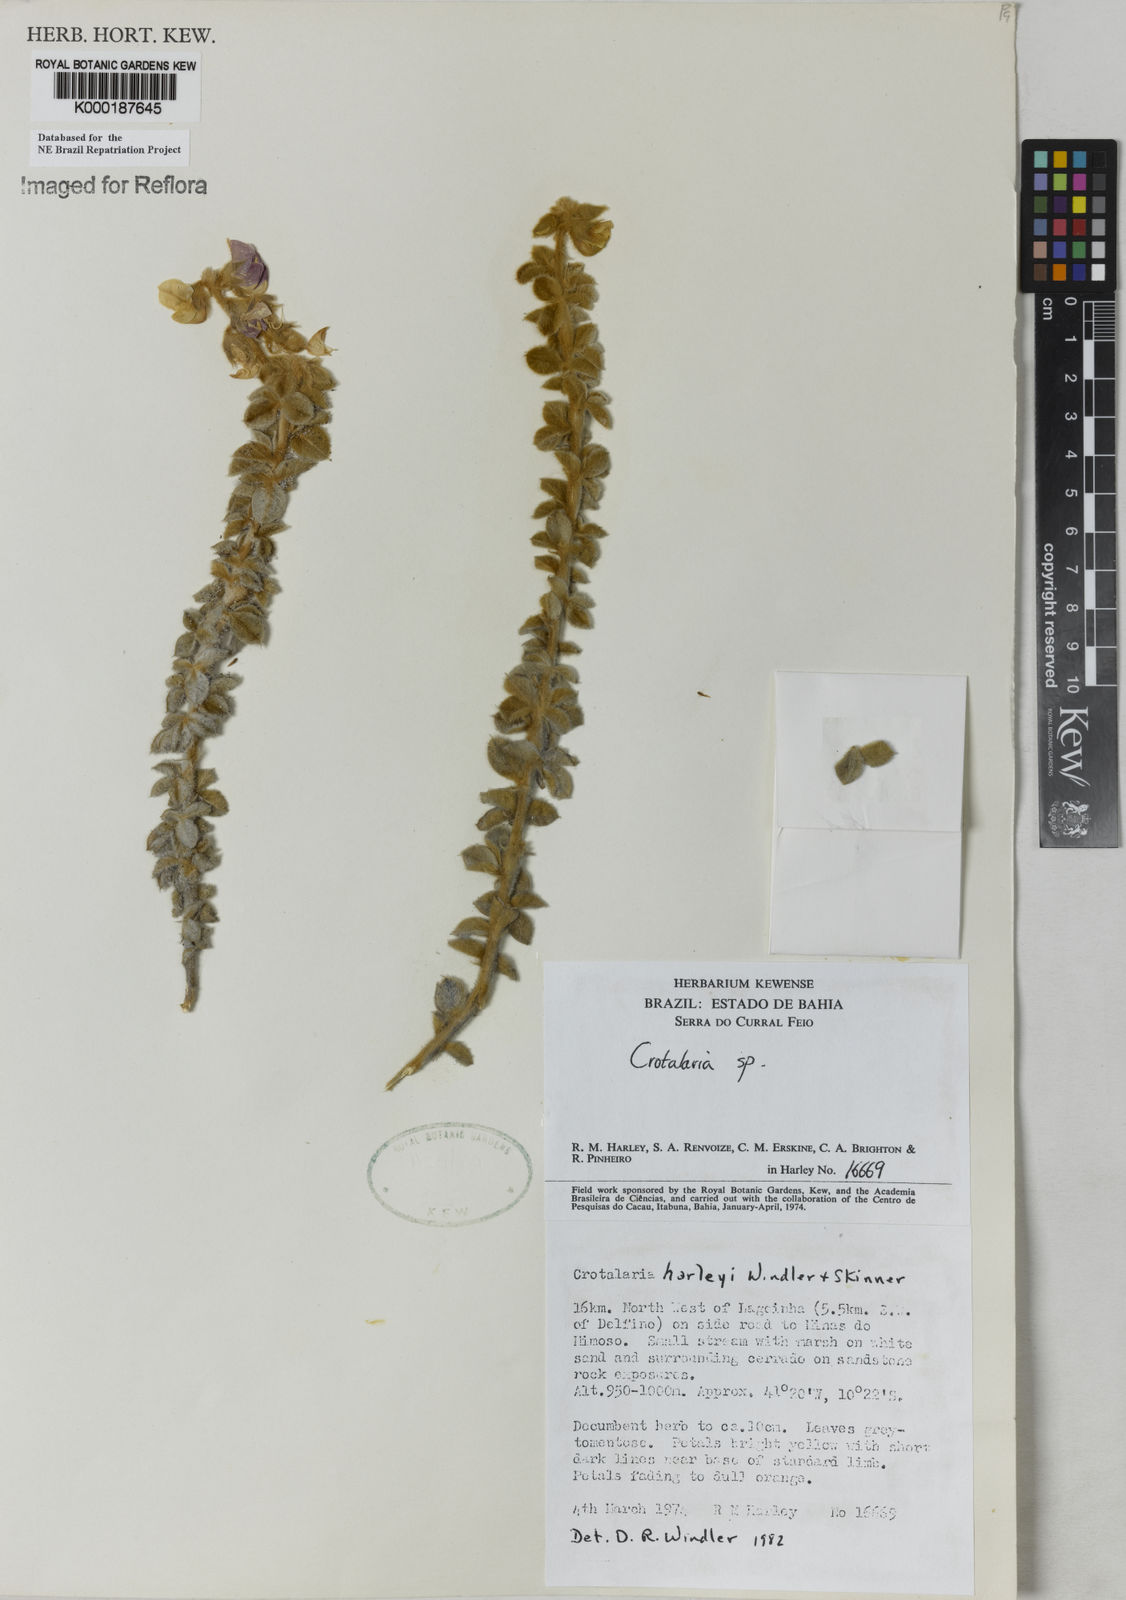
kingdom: Plantae
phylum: Tracheophyta
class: Magnoliopsida
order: Fabales
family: Fabaceae
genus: Crotalaria
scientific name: Crotalaria harleyi
